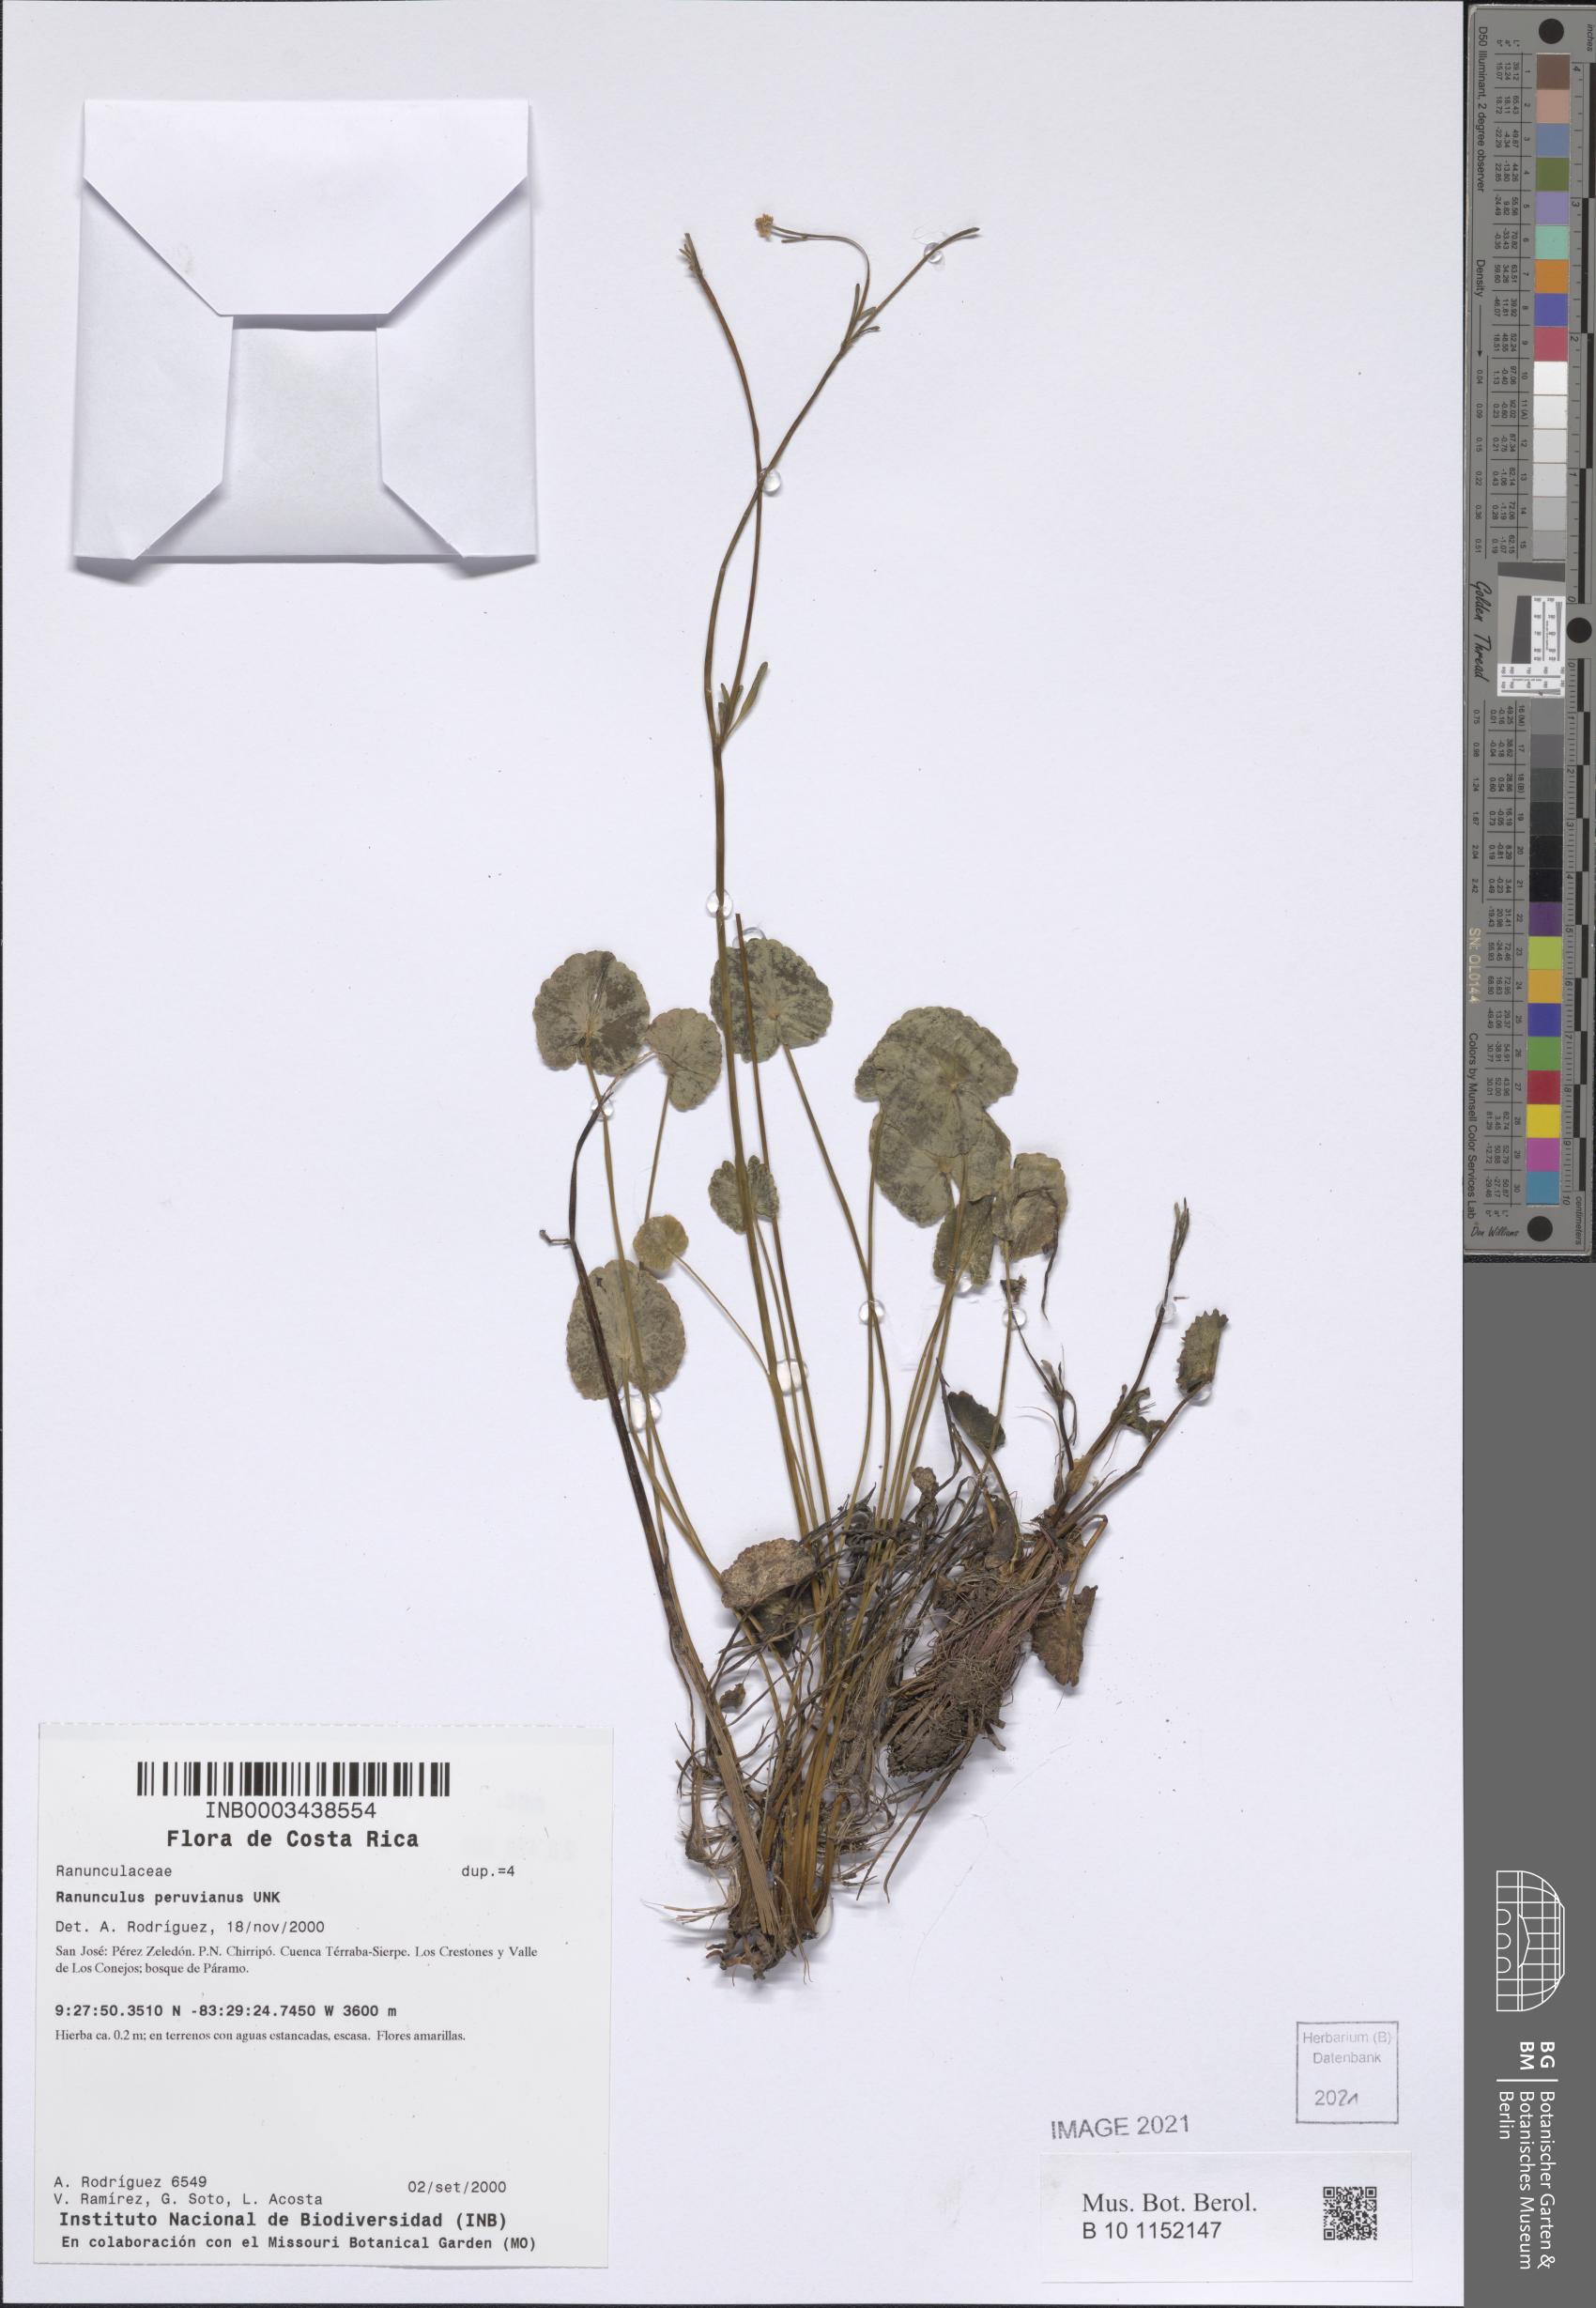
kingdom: Plantae
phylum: Tracheophyta
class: Magnoliopsida
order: Ranunculales
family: Ranunculaceae
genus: Ranunculus
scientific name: Ranunculus peruvianus
